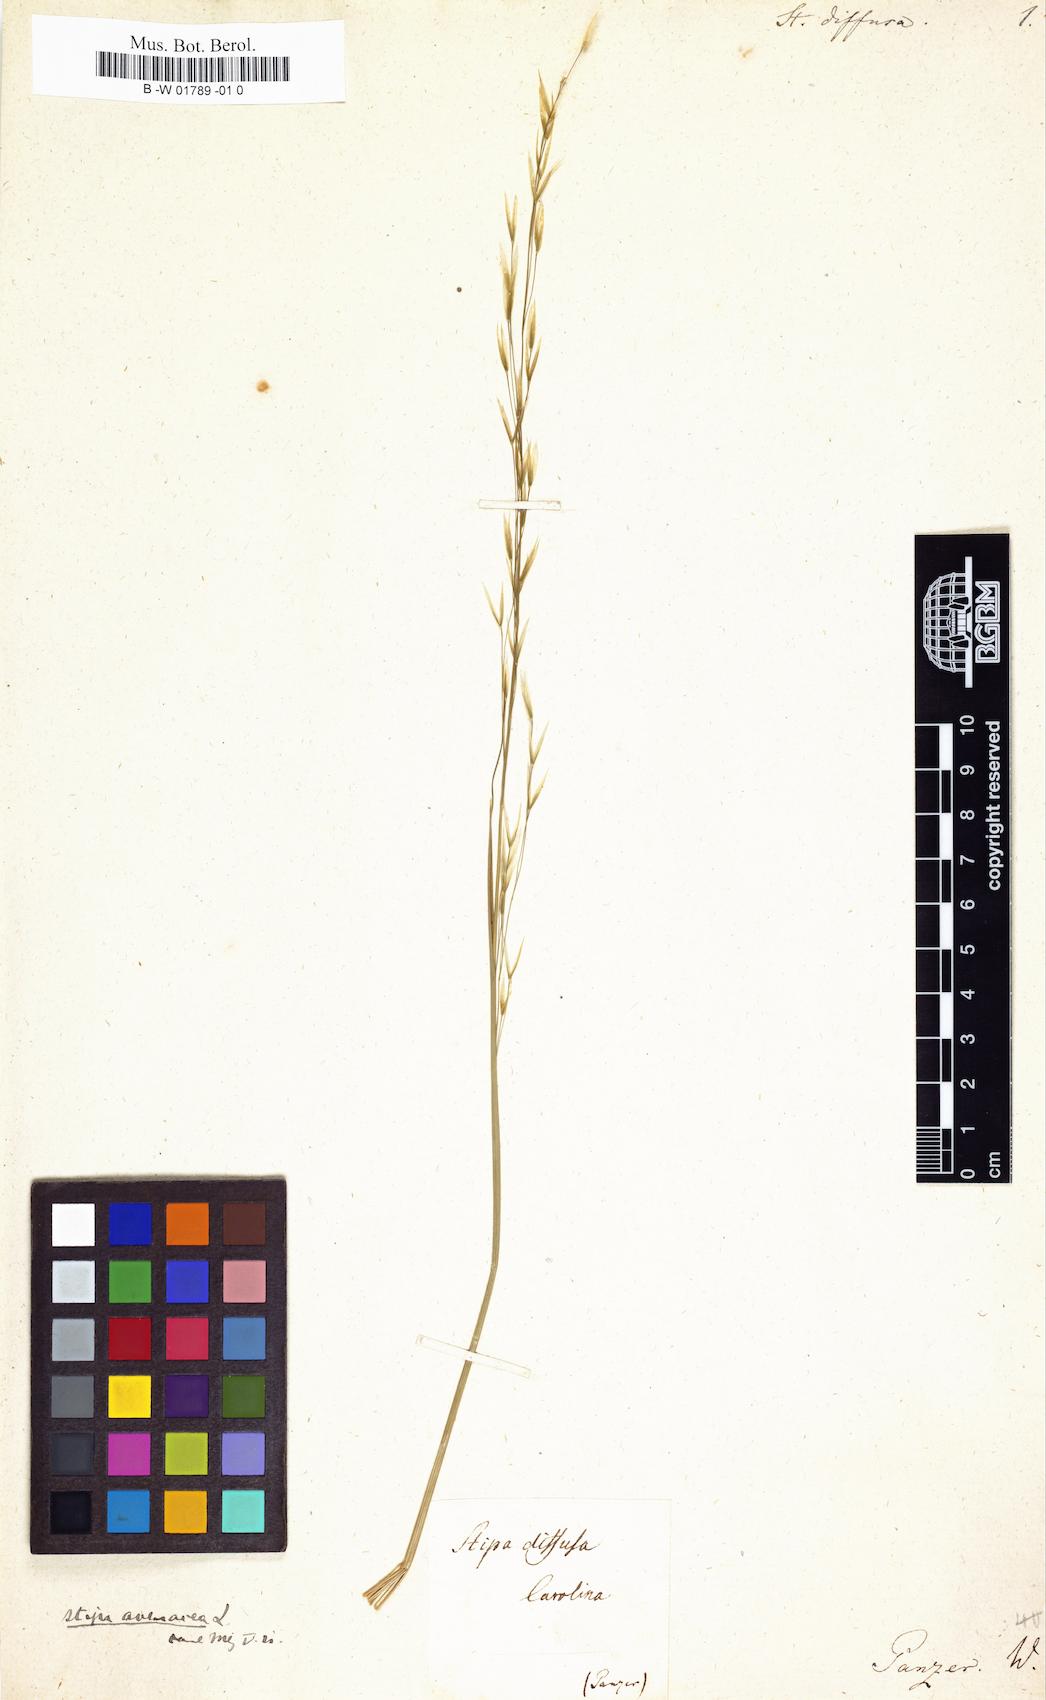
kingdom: Plantae
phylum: Tracheophyta
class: Liliopsida
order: Poales
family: Poaceae
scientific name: Poaceae
